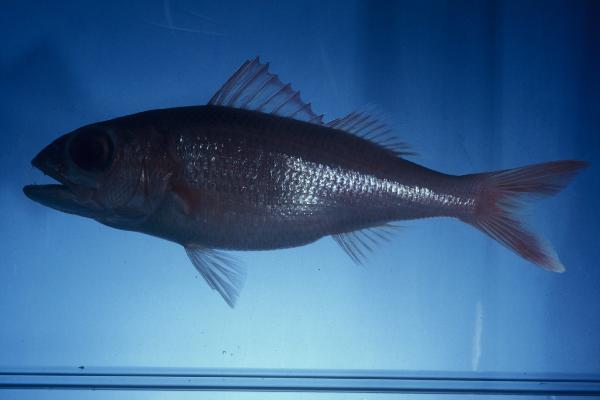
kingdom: Animalia
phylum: Chordata
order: Perciformes
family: Lutjanidae
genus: Etelis
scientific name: Etelis carbunculus
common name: Deepwater red snapper
